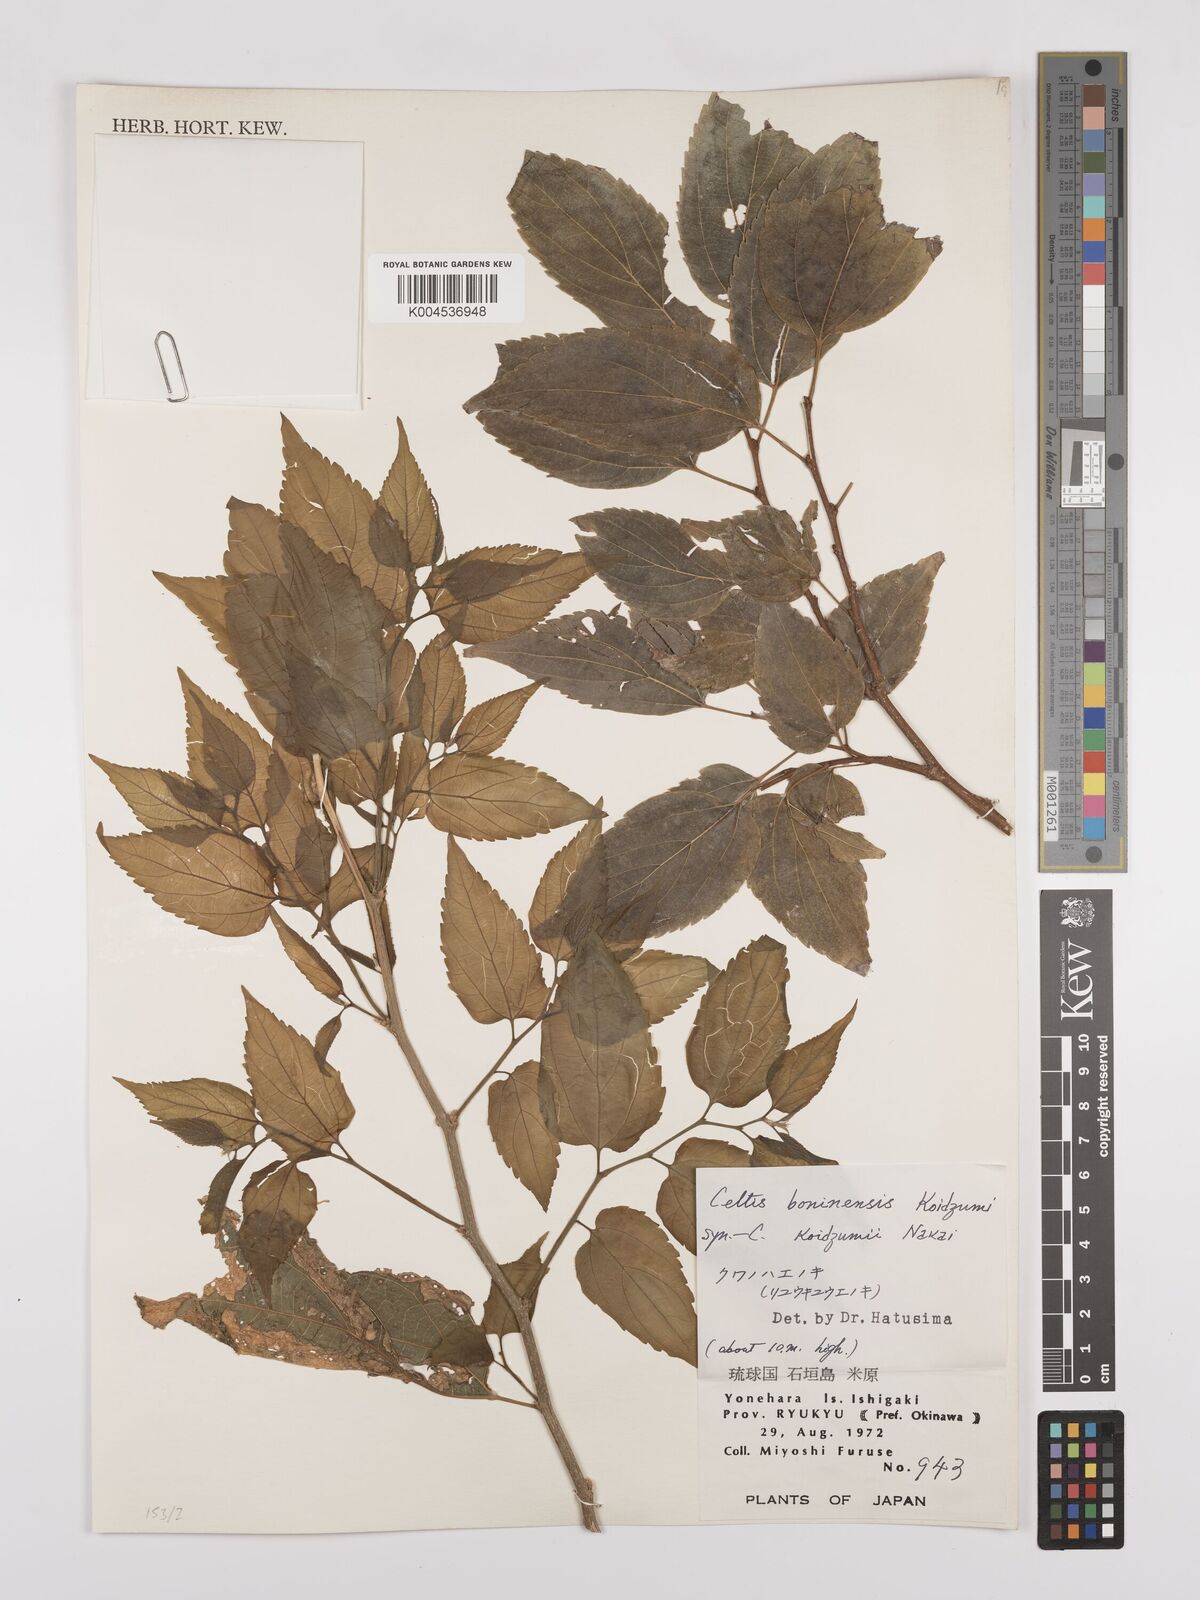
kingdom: Plantae
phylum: Tracheophyta
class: Magnoliopsida
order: Rosales
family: Cannabaceae
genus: Celtis
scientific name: Celtis boninensis
